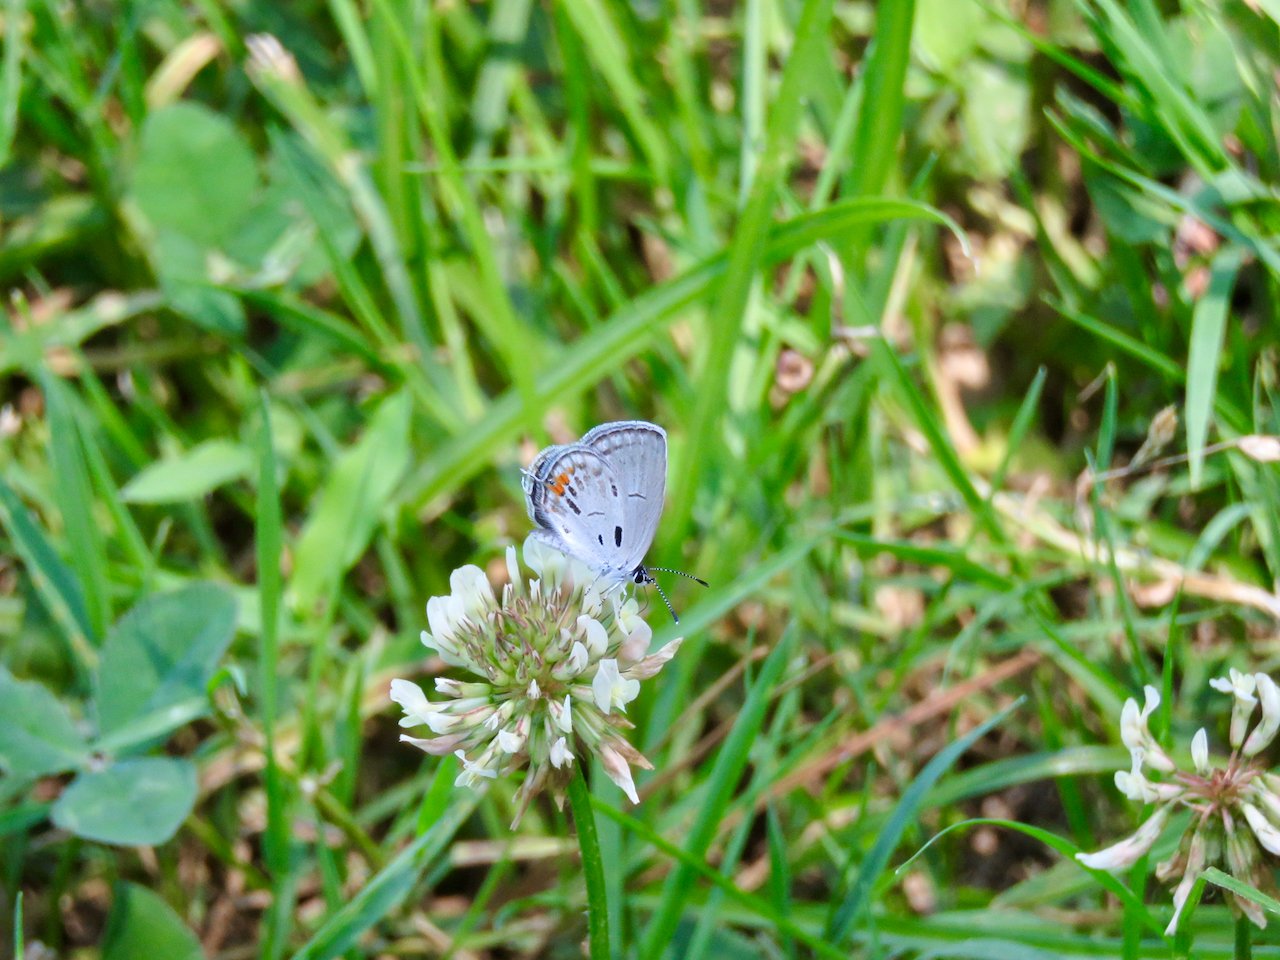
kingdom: Animalia
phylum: Arthropoda
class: Insecta
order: Lepidoptera
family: Lycaenidae
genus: Elkalyce
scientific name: Elkalyce comyntas
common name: Eastern Tailed-Blue
